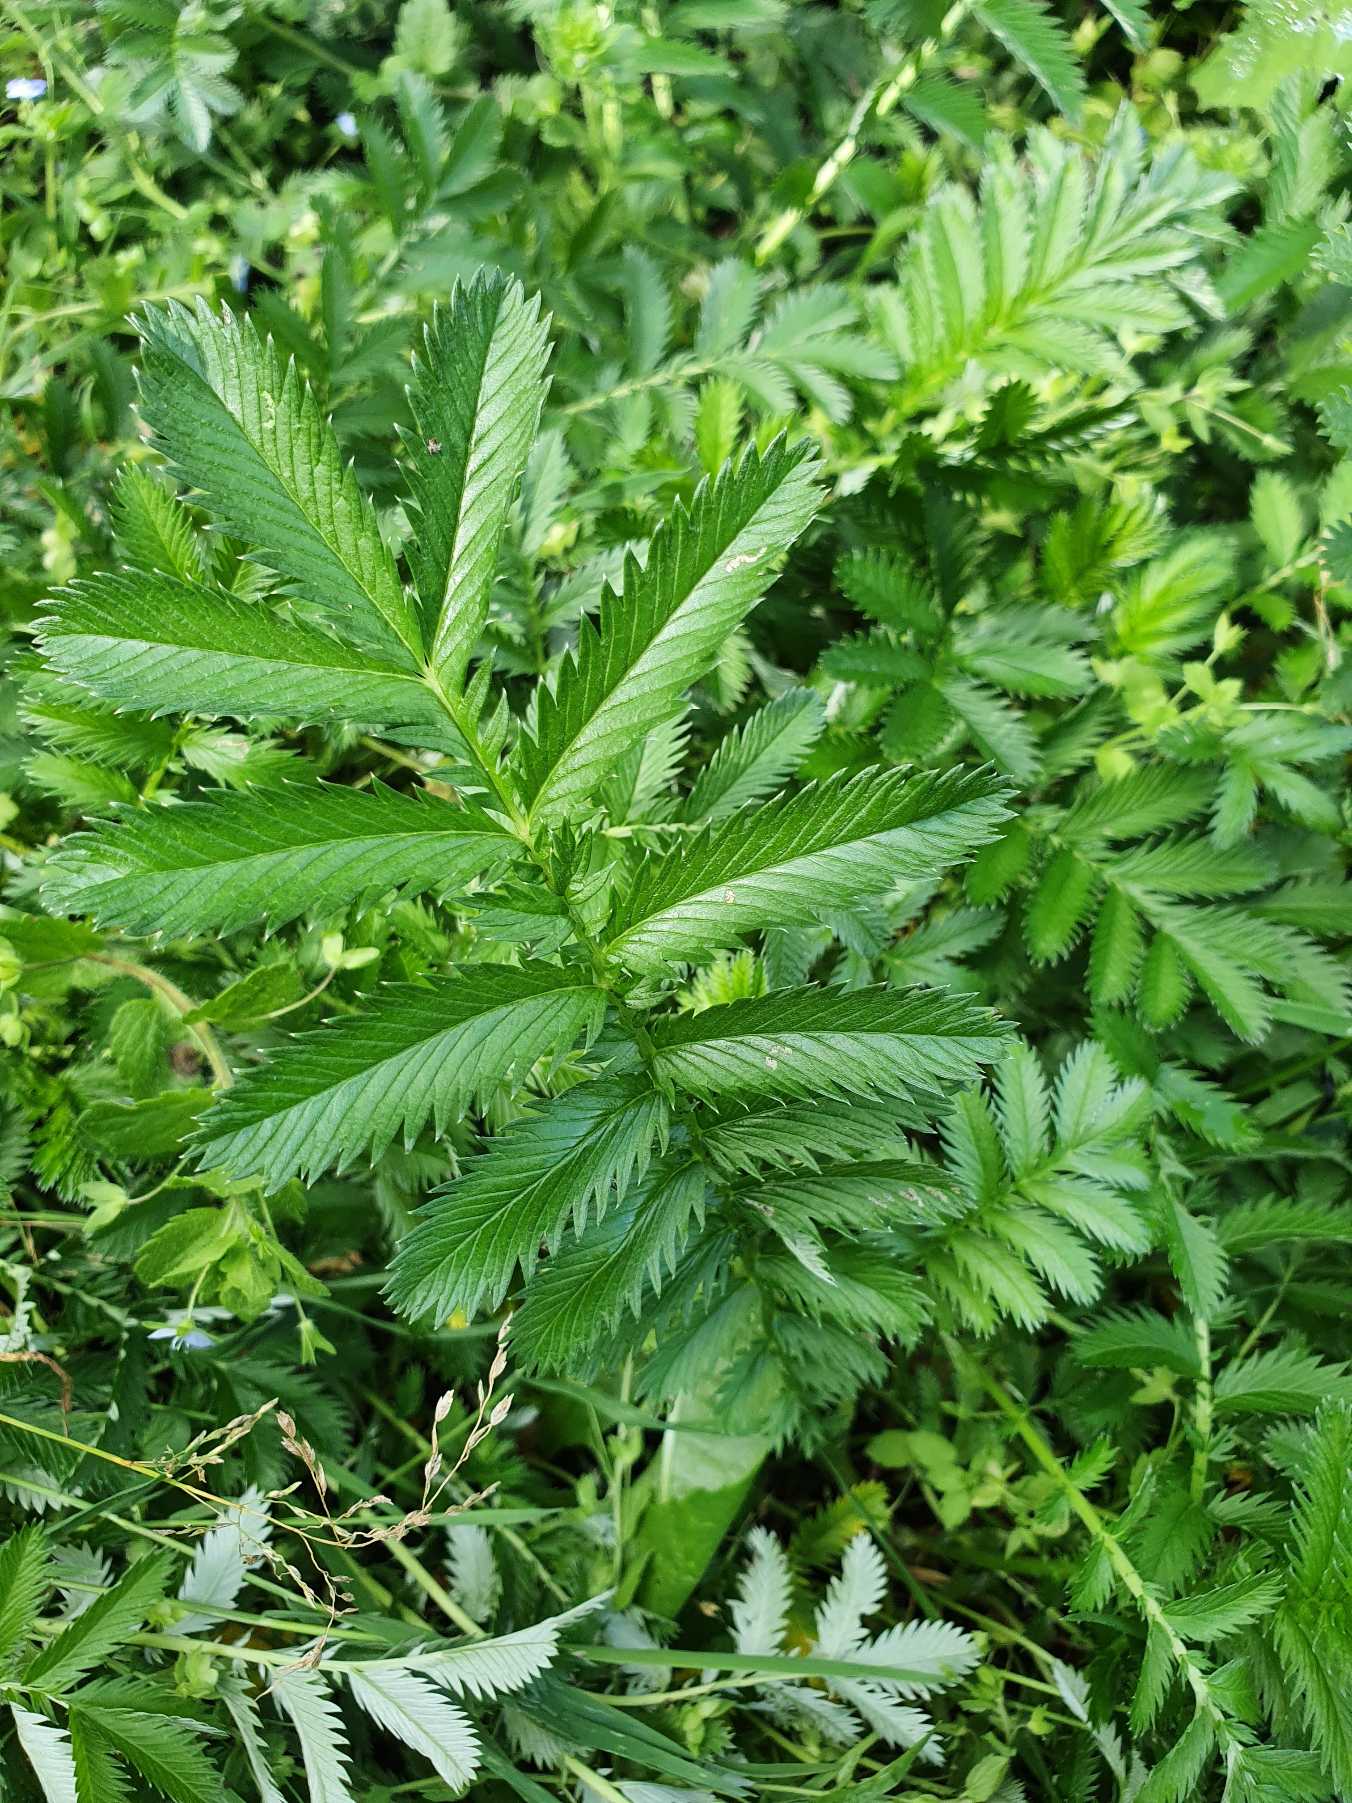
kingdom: Plantae
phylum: Tracheophyta
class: Magnoliopsida
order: Rosales
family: Rosaceae
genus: Argentina
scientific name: Argentina anserina
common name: Gåsepotentil
